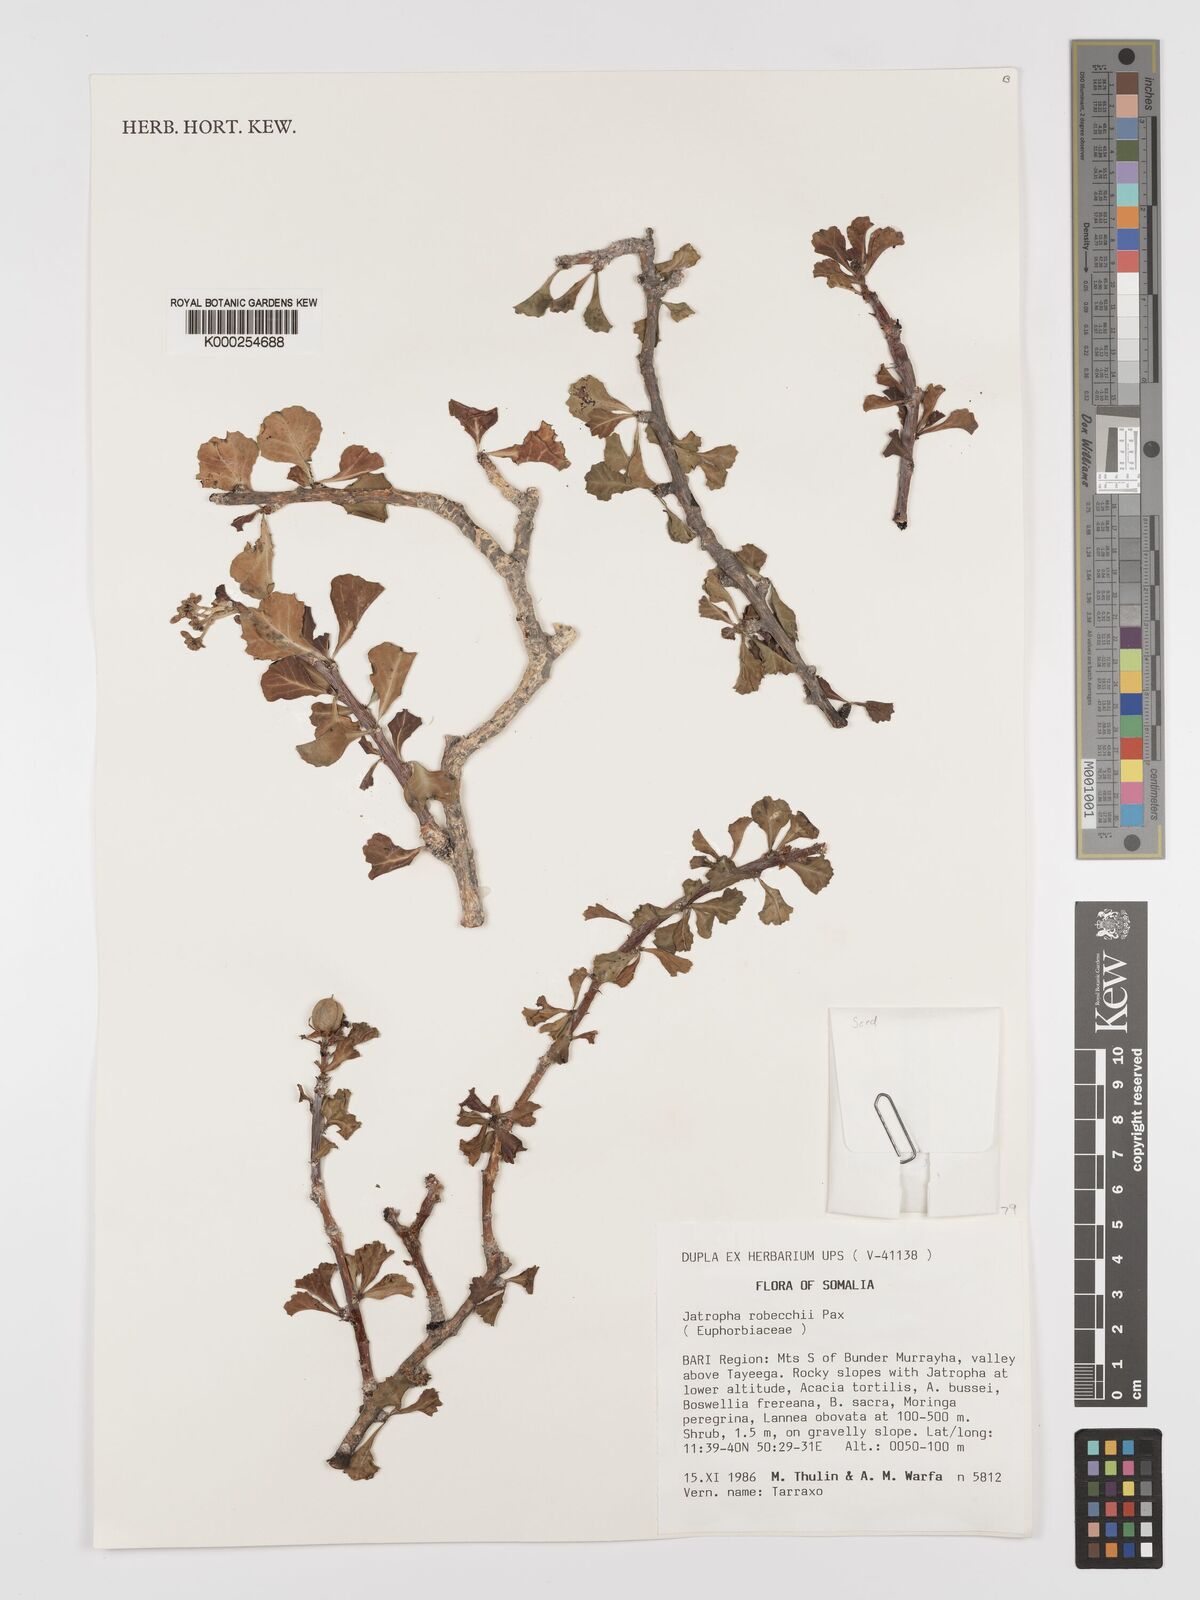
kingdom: Plantae
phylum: Tracheophyta
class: Magnoliopsida
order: Malpighiales
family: Euphorbiaceae
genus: Jatropha
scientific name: Jatropha robecchii
